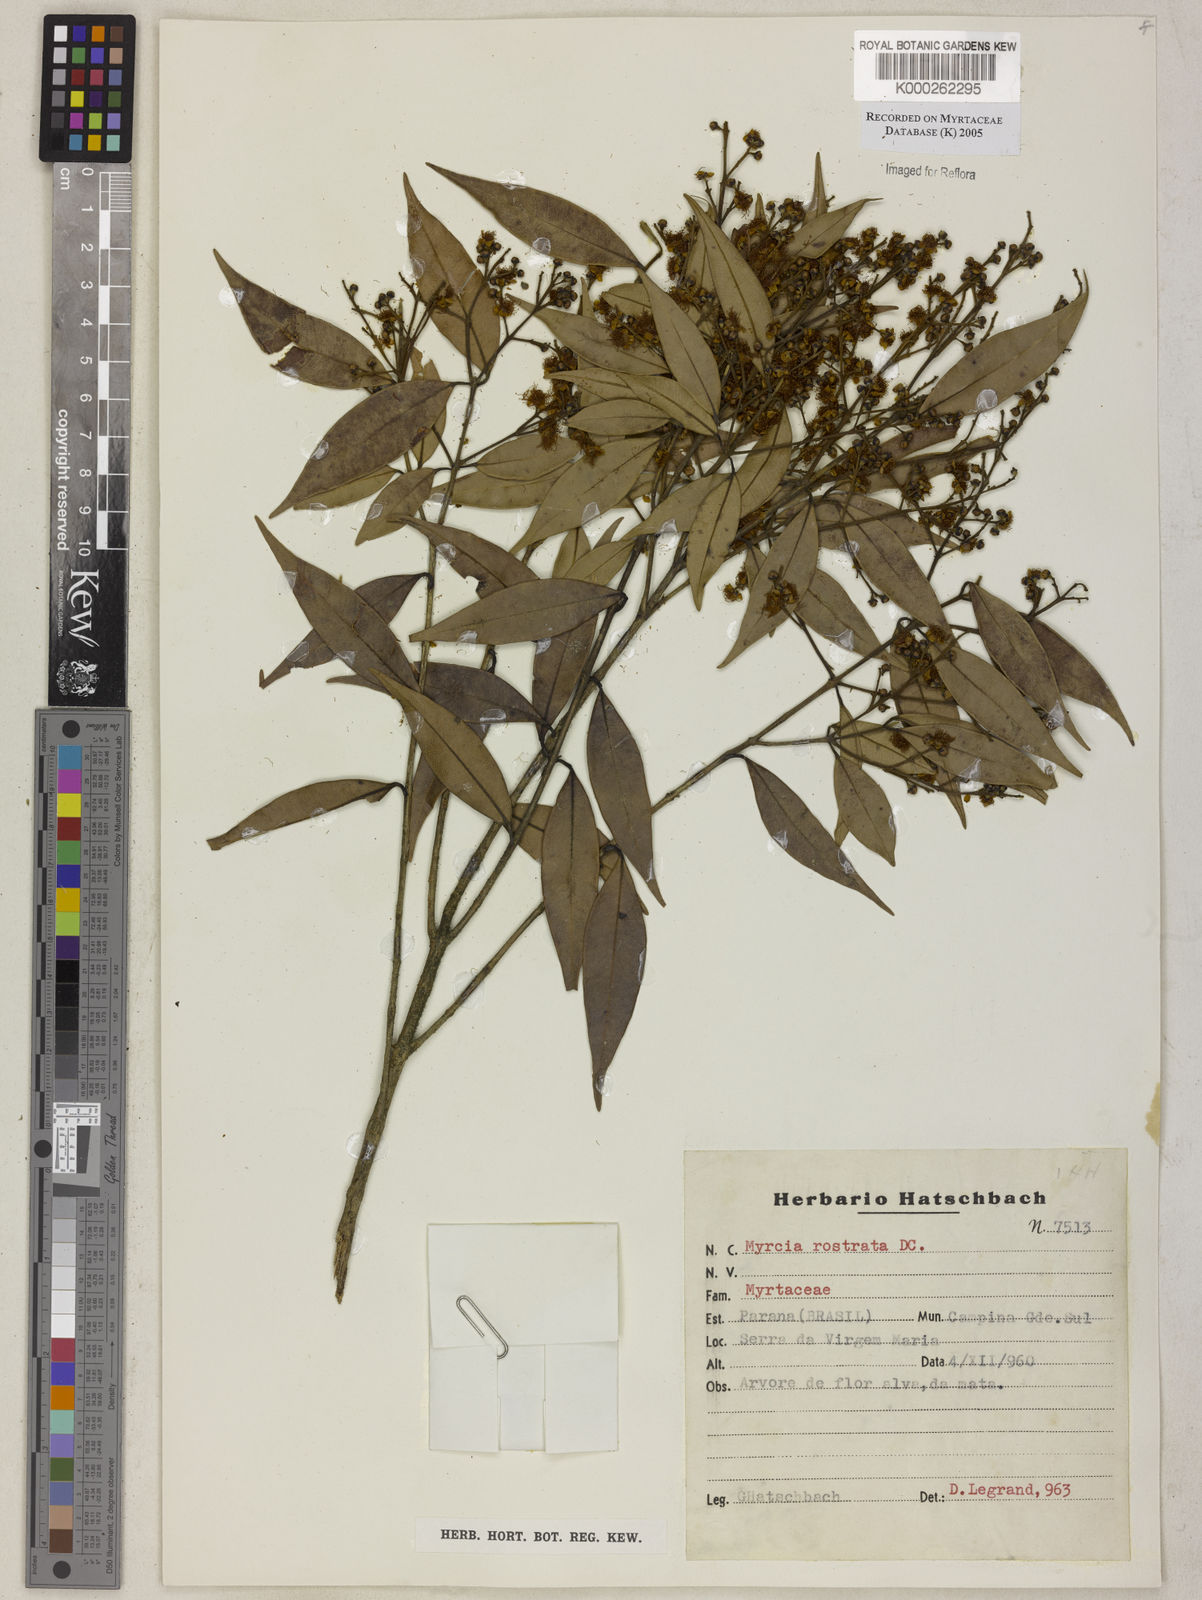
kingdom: Plantae
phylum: Tracheophyta
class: Magnoliopsida
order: Myrtales
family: Myrtaceae
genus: Myrcia
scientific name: Myrcia splendens
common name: Surinam cherry
